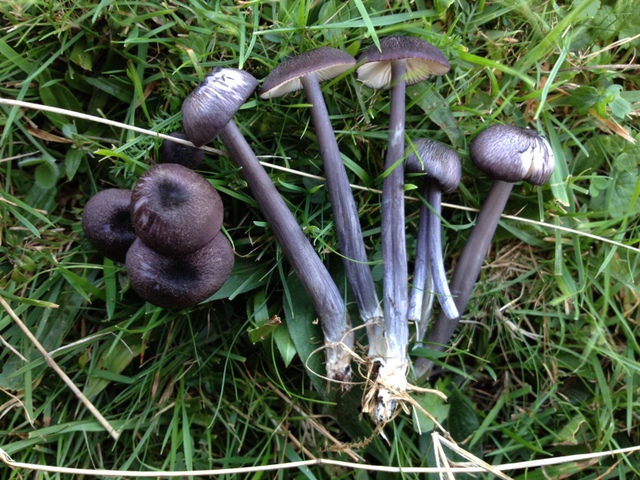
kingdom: Fungi
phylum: Basidiomycota
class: Agaricomycetes
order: Agaricales
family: Entolomataceae
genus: Entoloma
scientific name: Entoloma viiduense
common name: purpurbrun rødblad
